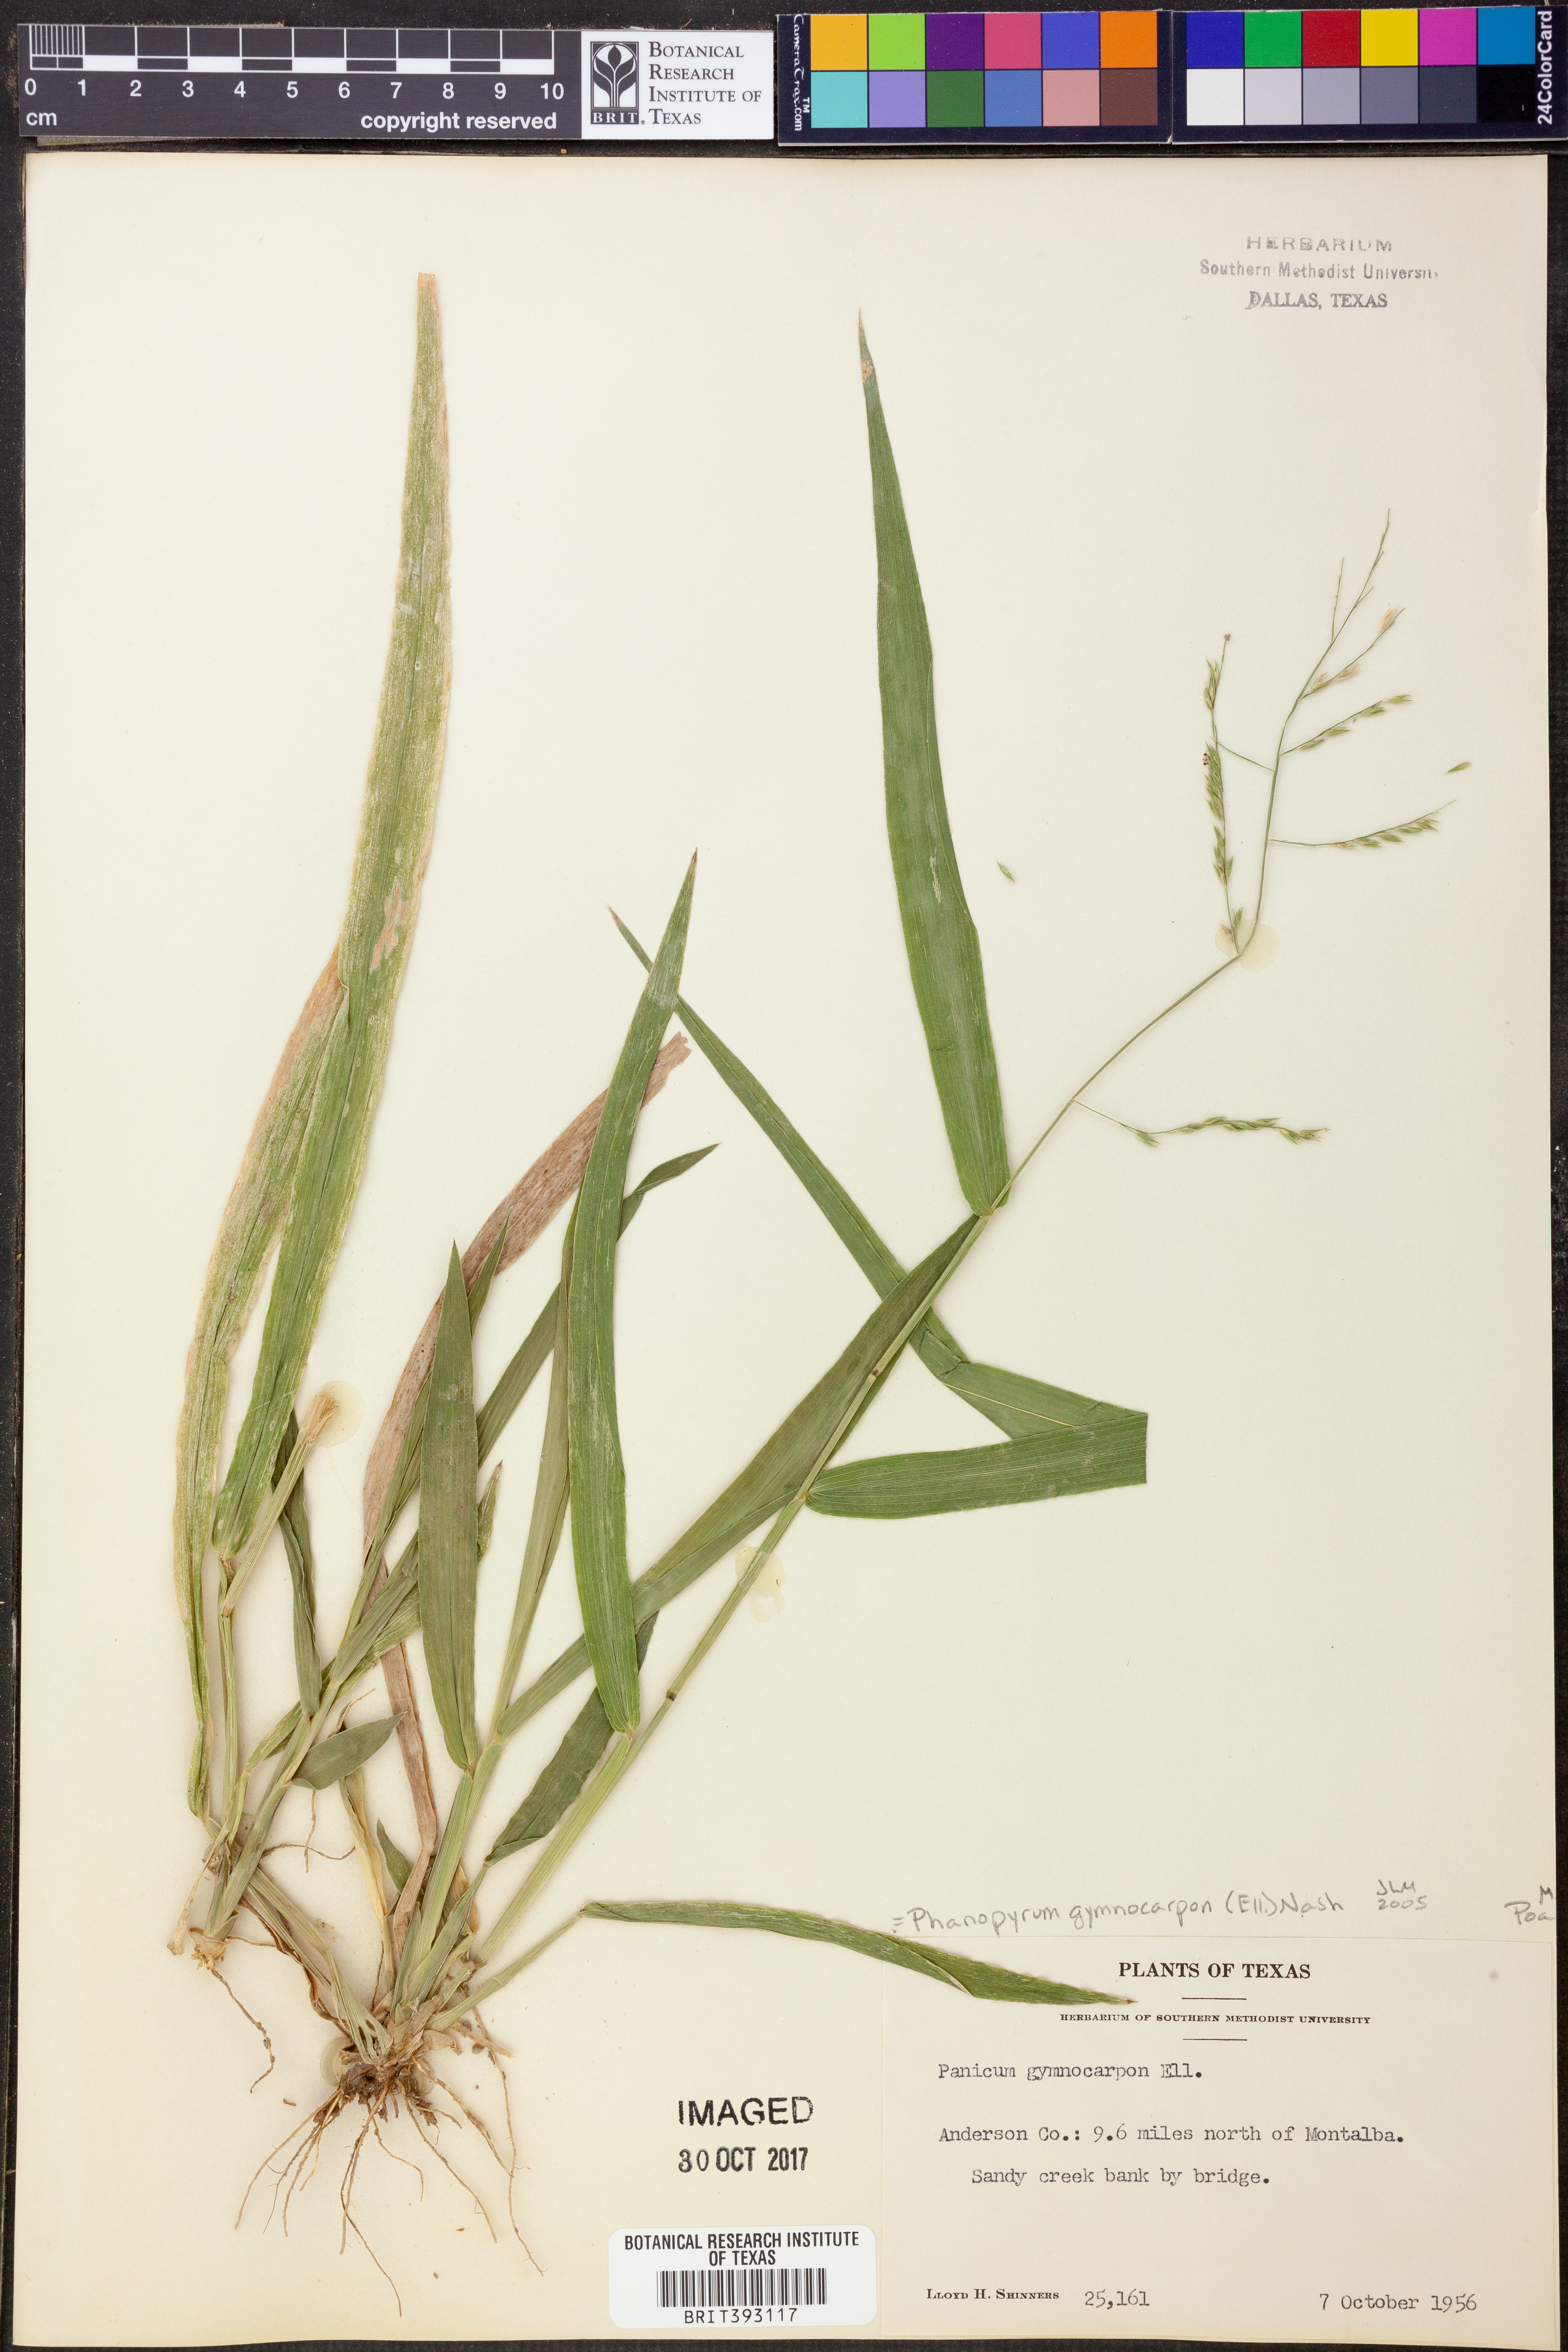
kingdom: Plantae
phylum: Tracheophyta
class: Liliopsida
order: Poales
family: Poaceae
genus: Panicum
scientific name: Panicum gymnocarpon
